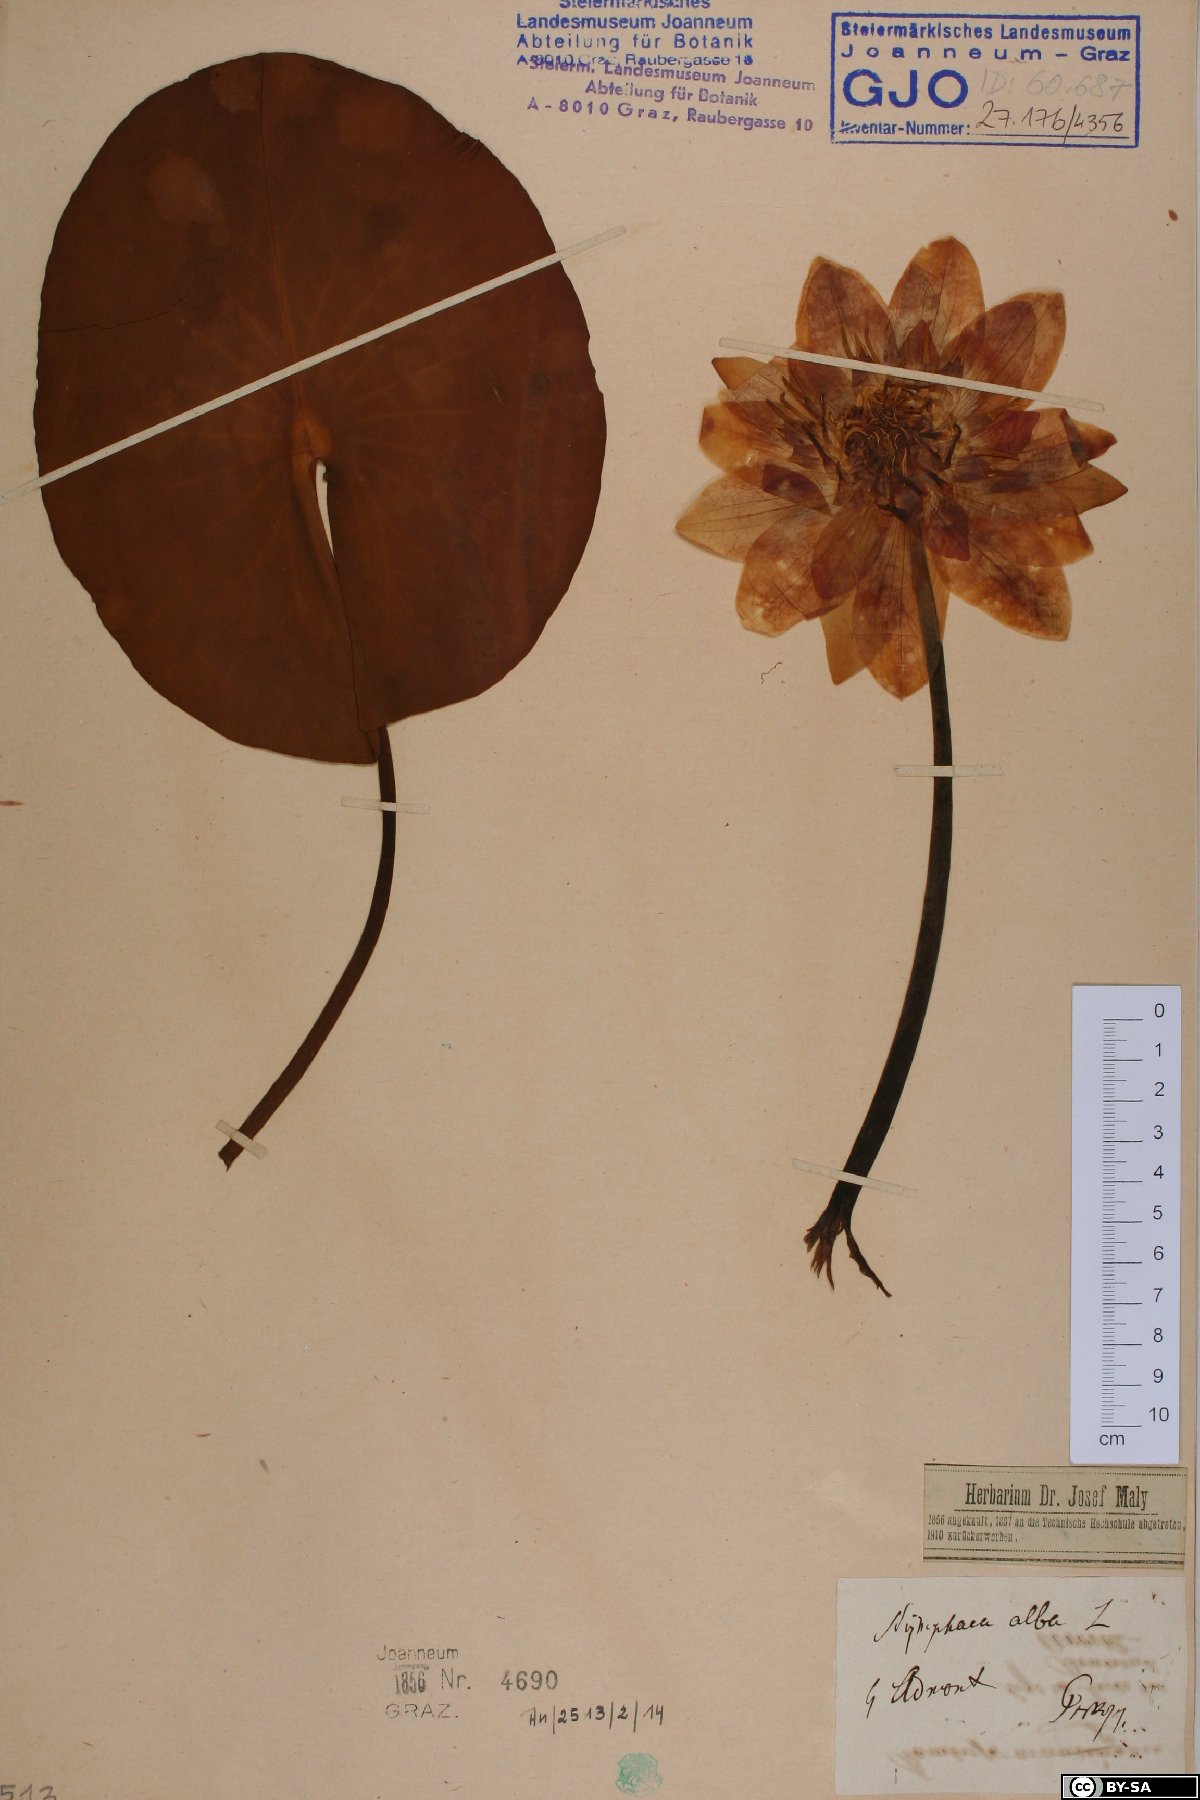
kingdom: Plantae
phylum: Tracheophyta
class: Magnoliopsida
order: Nymphaeales
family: Nymphaeaceae
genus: Nymphaea
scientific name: Nymphaea alba
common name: White water-lily
